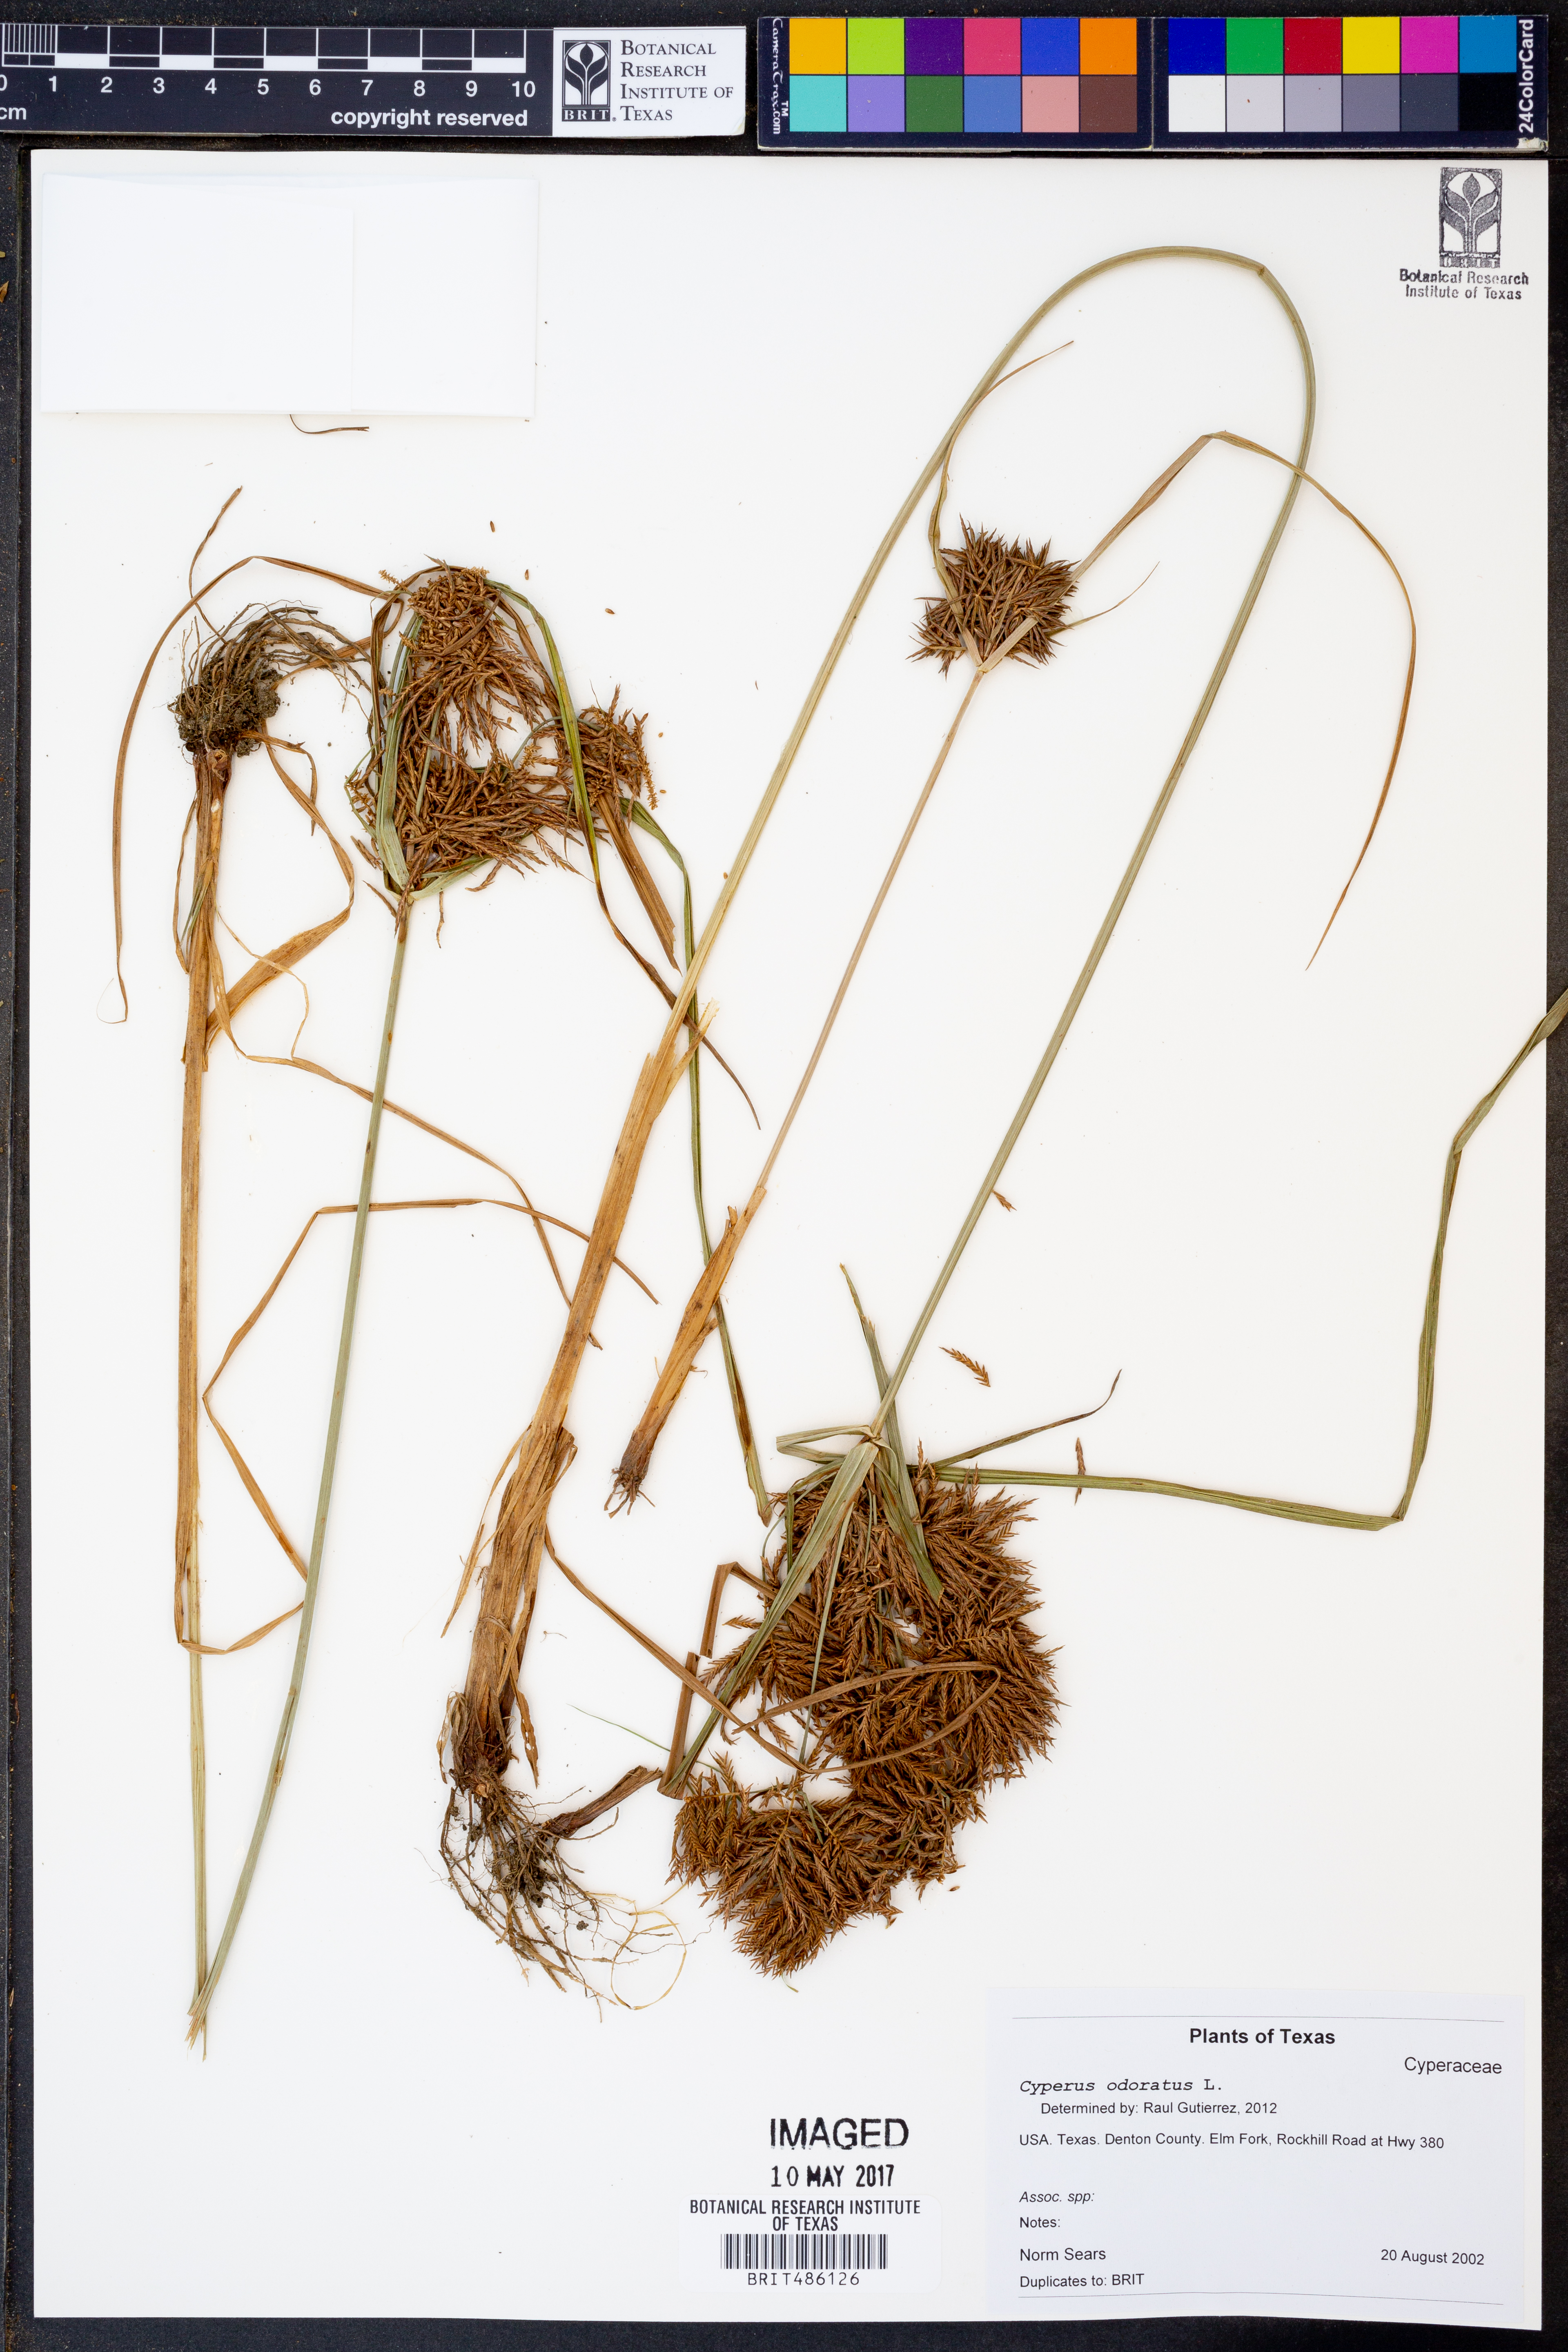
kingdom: Plantae
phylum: Tracheophyta
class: Liliopsida
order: Poales
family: Cyperaceae
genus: Cyperus
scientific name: Cyperus odoratus
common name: Fragrant flatsedge
